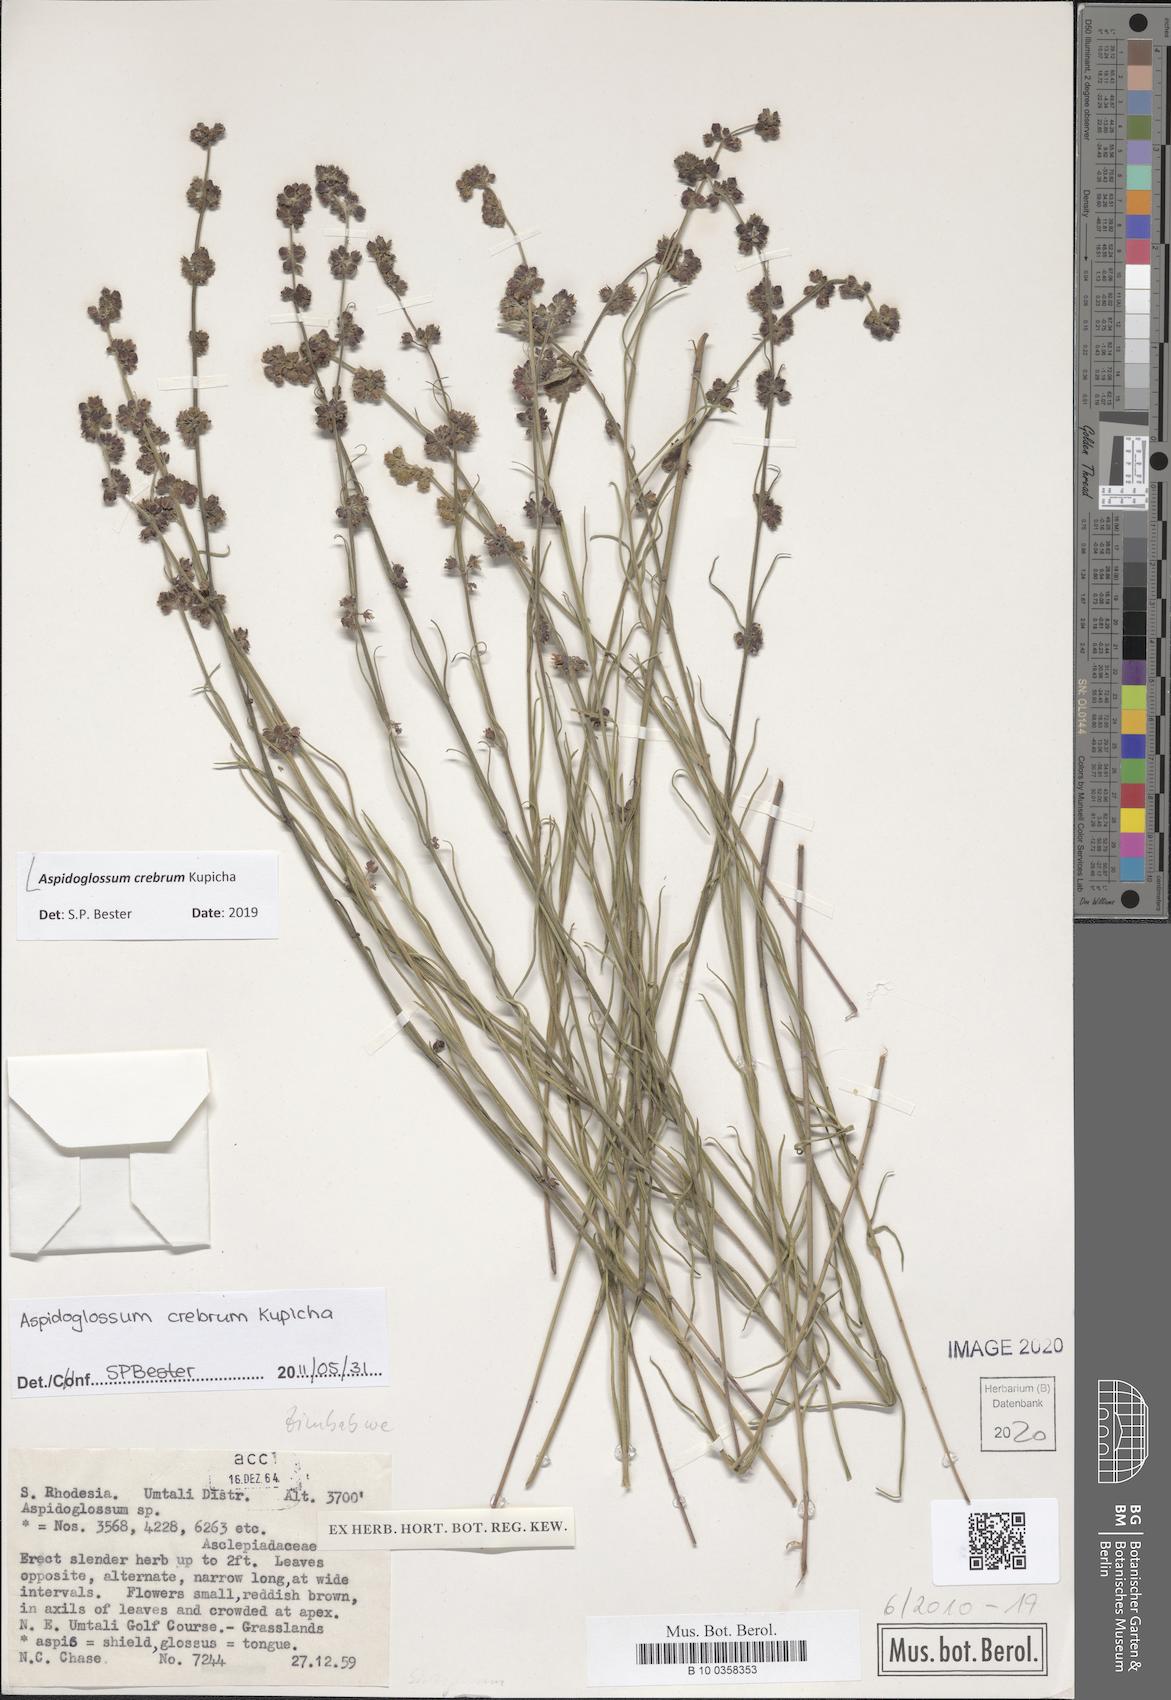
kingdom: Plantae
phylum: Tracheophyta
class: Magnoliopsida
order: Gentianales
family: Apocynaceae
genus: Aspidoglossum
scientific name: Aspidoglossum
